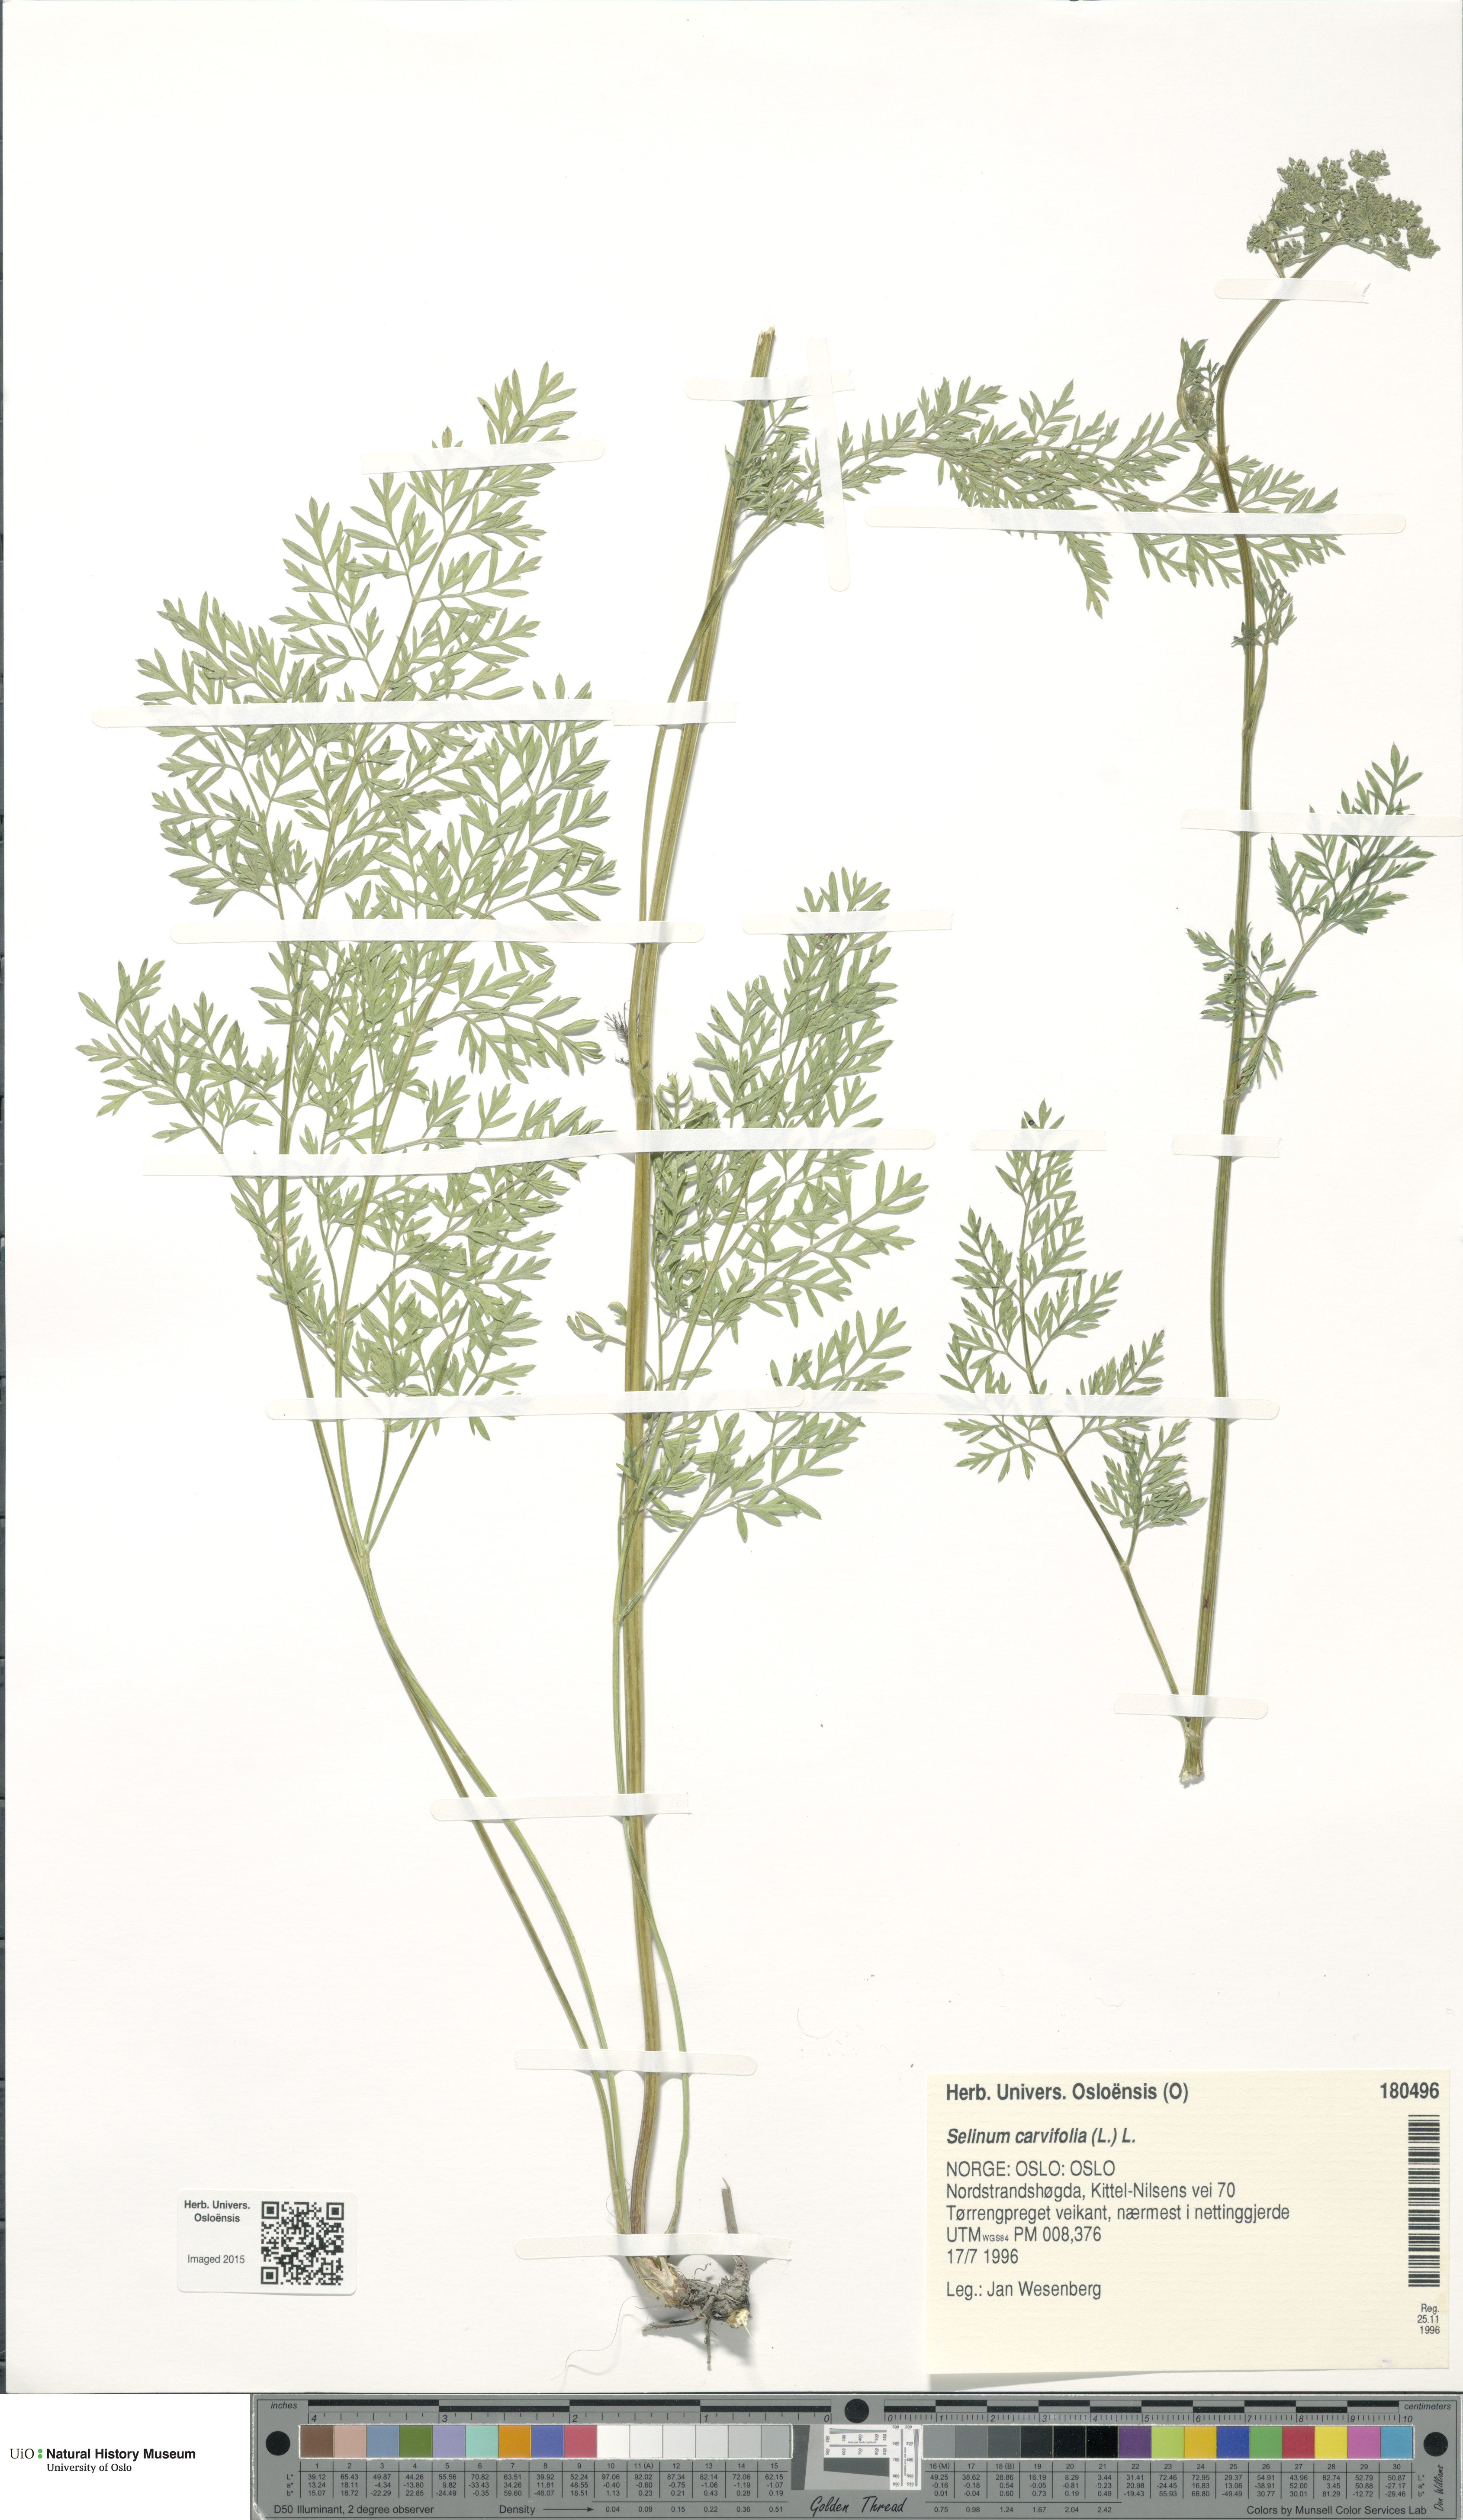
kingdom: Plantae
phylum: Tracheophyta
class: Magnoliopsida
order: Apiales
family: Apiaceae
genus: Selinum
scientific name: Selinum carvifolia
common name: Cambridge milk-parsley
